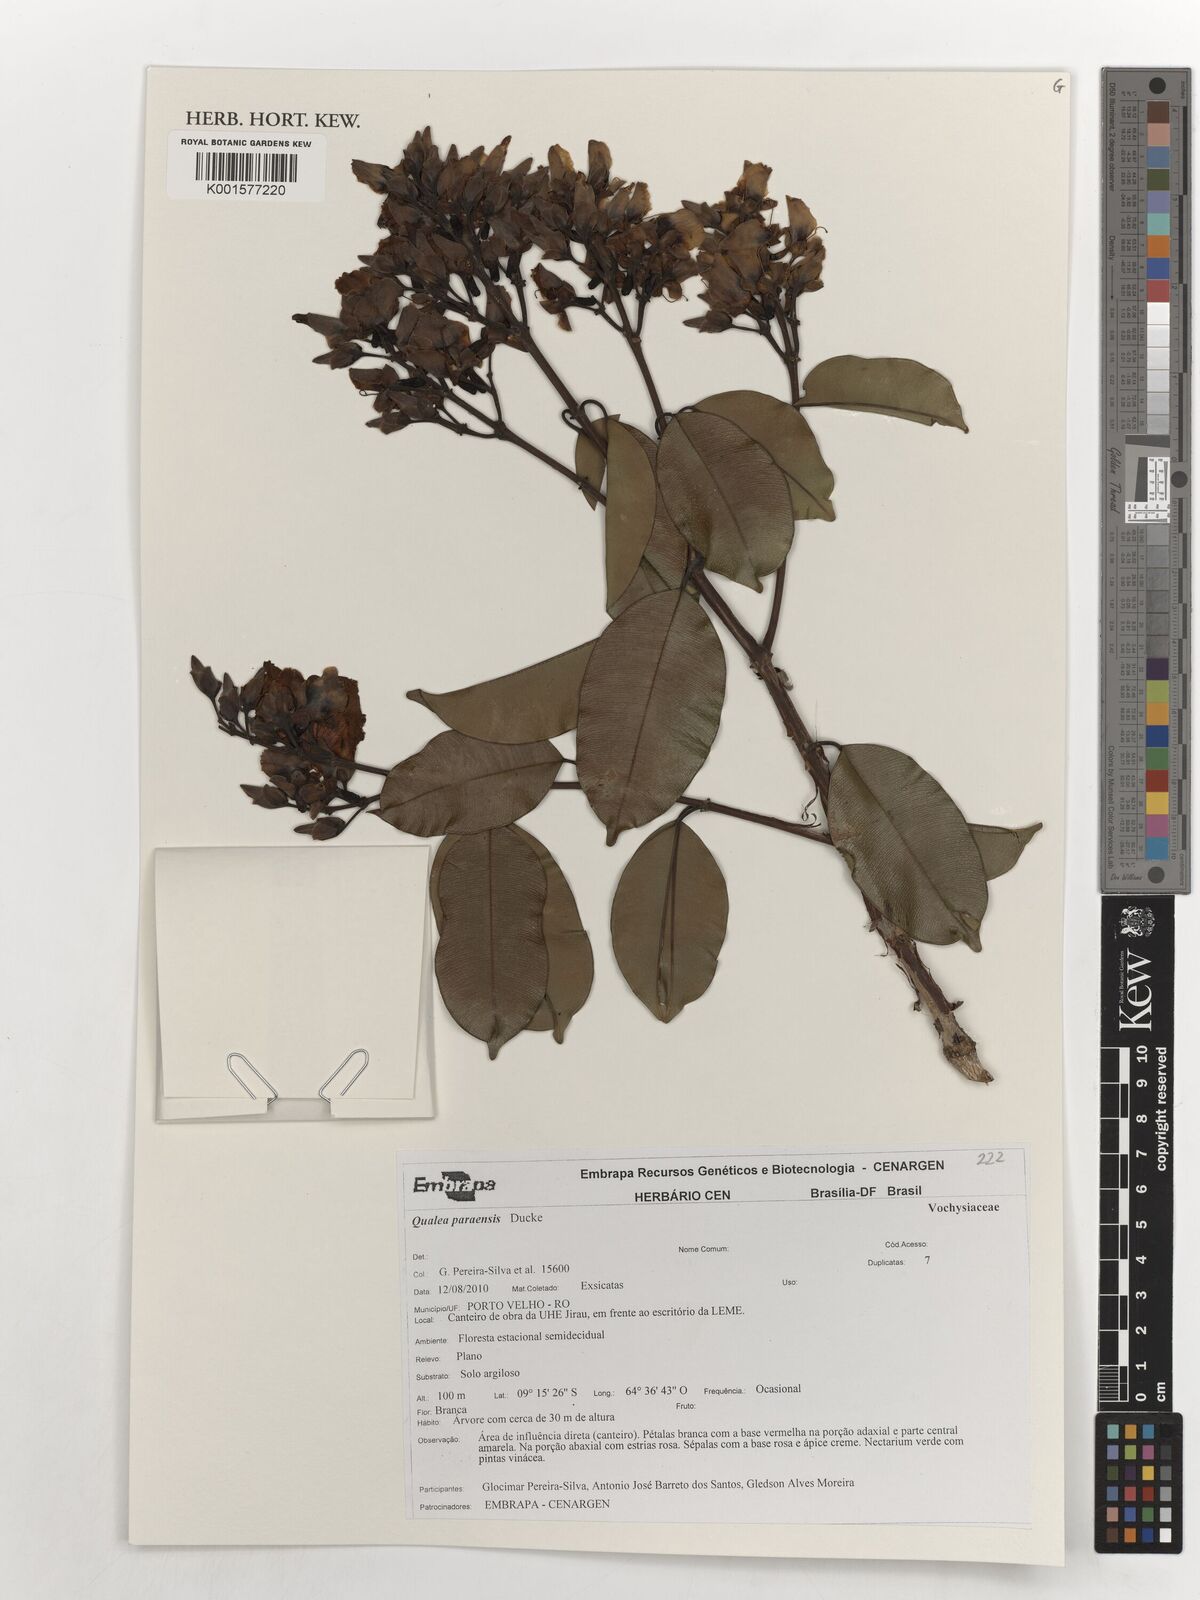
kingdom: Plantae
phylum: Tracheophyta
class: Magnoliopsida
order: Myrtales
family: Vochysiaceae
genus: Qualea
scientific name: Qualea paraensis
